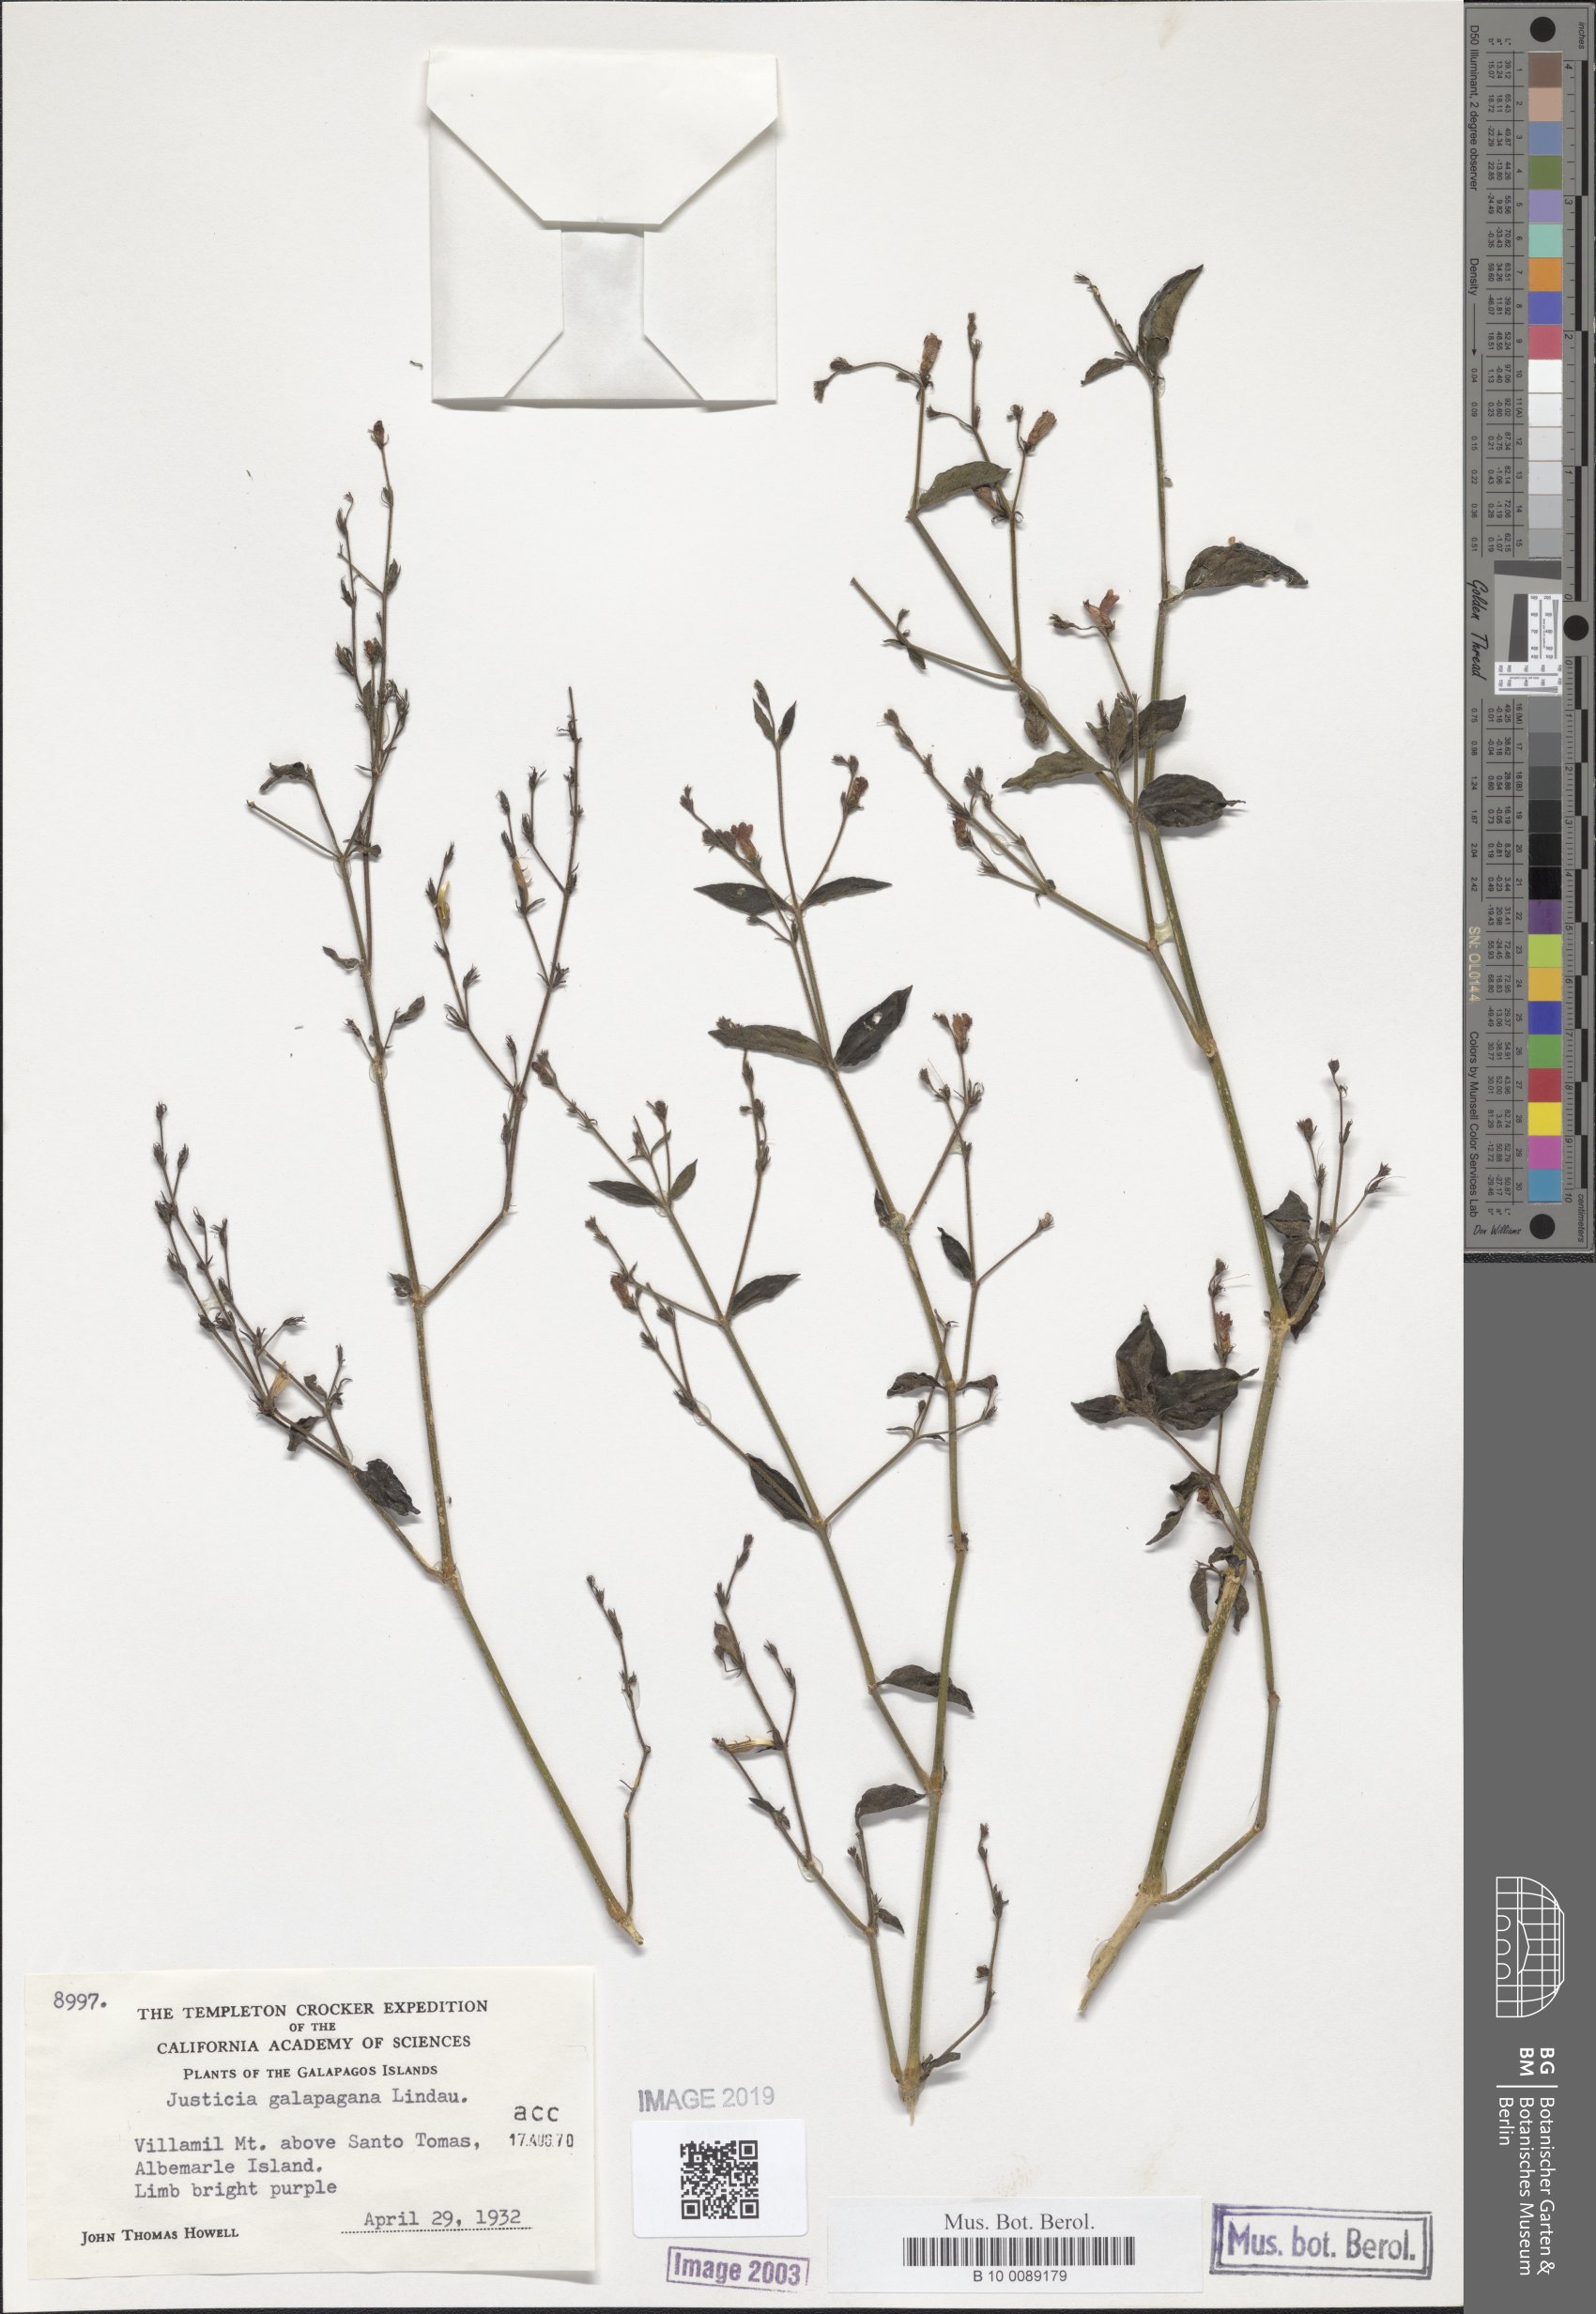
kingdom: Plantae
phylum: Tracheophyta
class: Magnoliopsida
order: Lamiales
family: Acanthaceae
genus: Justicia
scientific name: Justicia galapagana
